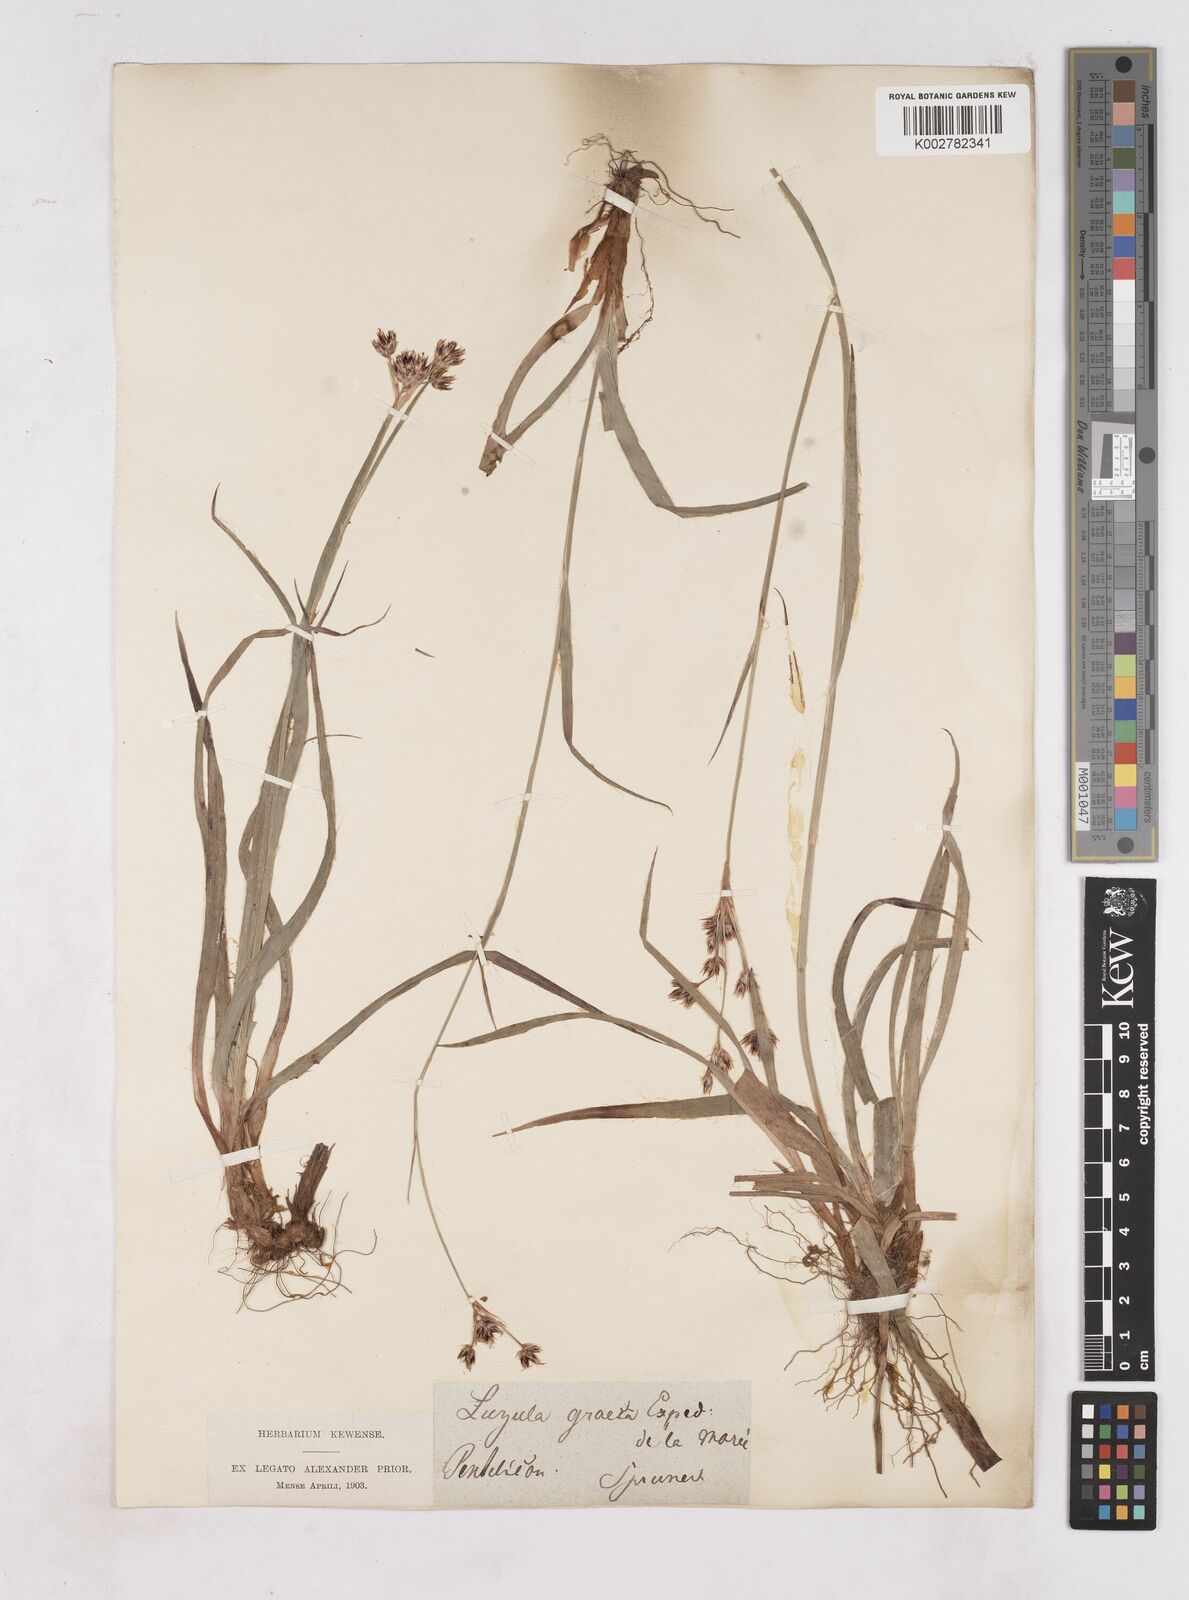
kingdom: Plantae
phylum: Tracheophyta
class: Liliopsida
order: Poales
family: Juncaceae
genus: Luzula
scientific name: Luzula nodulosa
